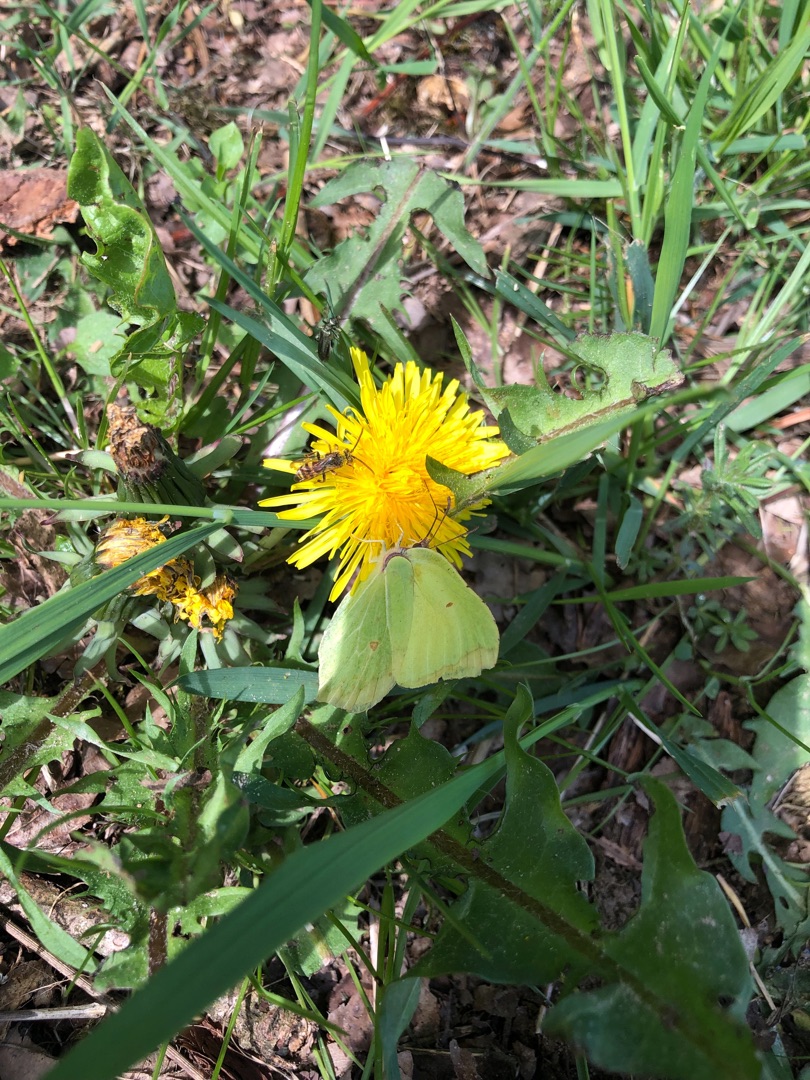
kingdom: Animalia
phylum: Arthropoda
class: Insecta
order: Lepidoptera
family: Pieridae
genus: Gonepteryx
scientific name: Gonepteryx rhamni
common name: Citronsommerfugl
